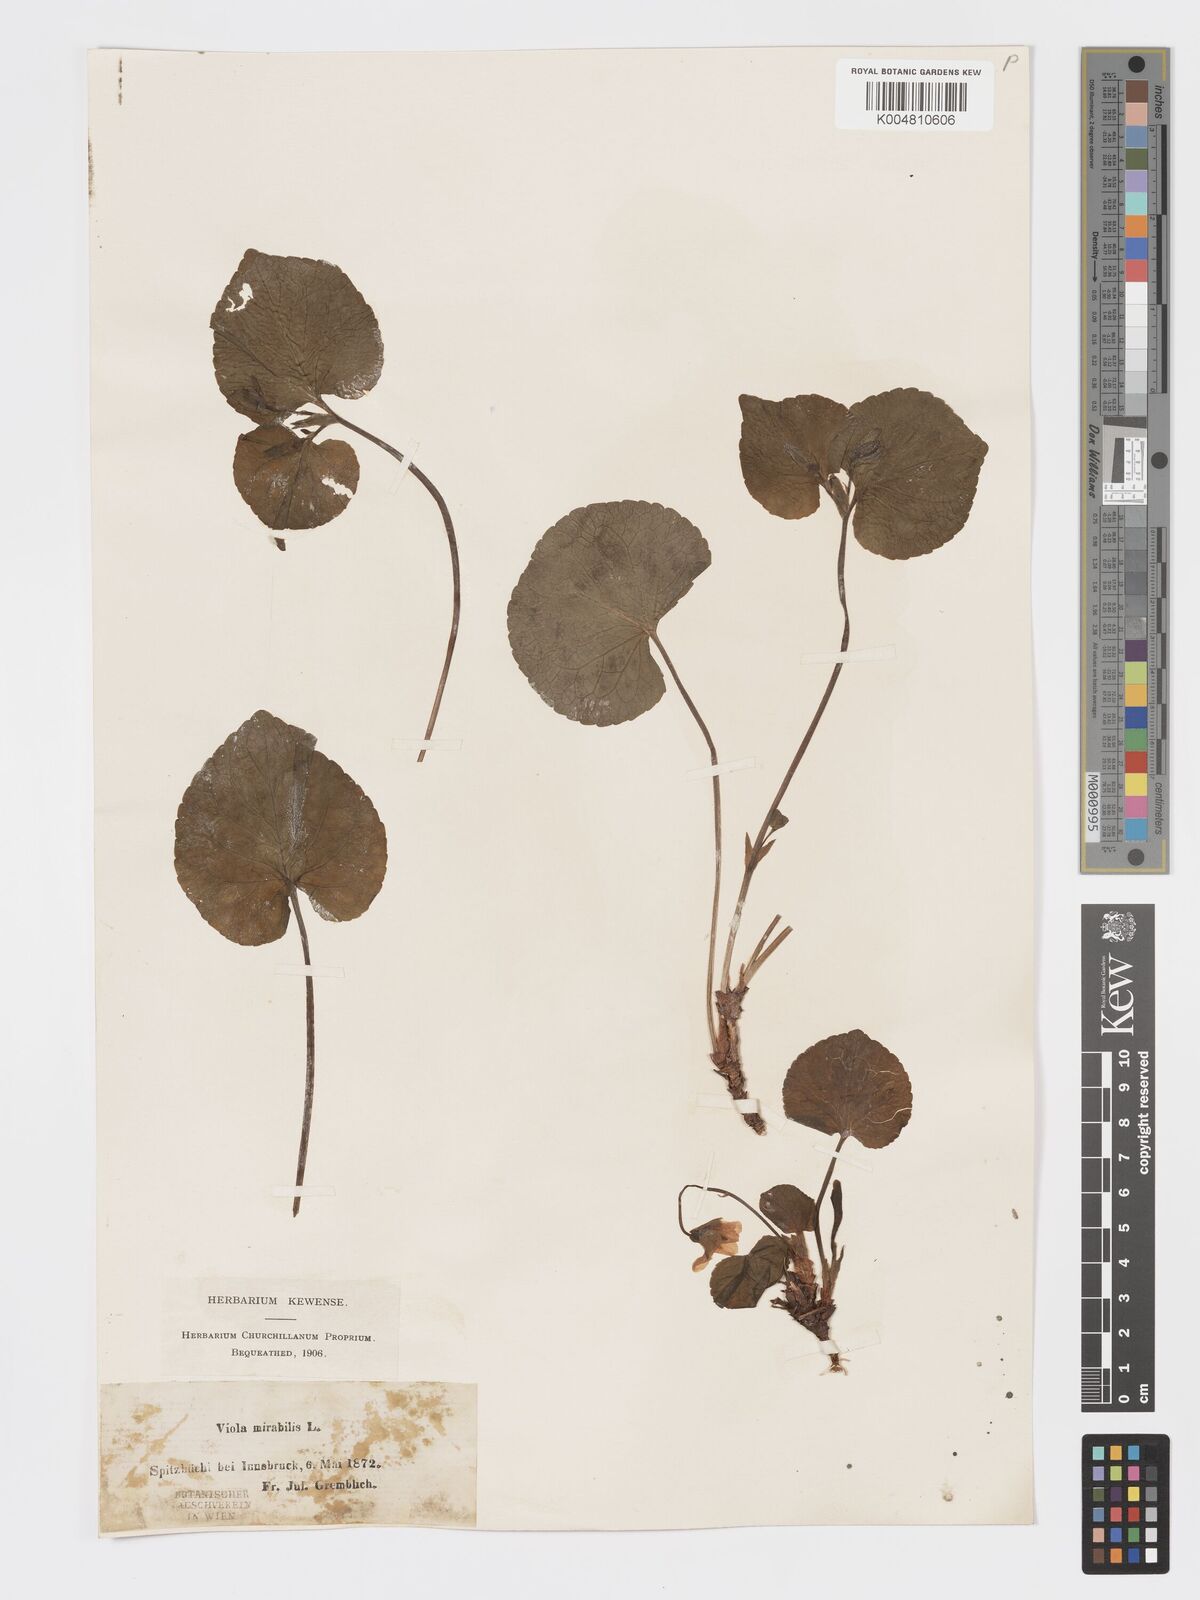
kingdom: Plantae
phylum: Tracheophyta
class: Magnoliopsida
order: Malpighiales
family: Violaceae
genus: Viola
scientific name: Viola mirabilis
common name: Wonder violet
